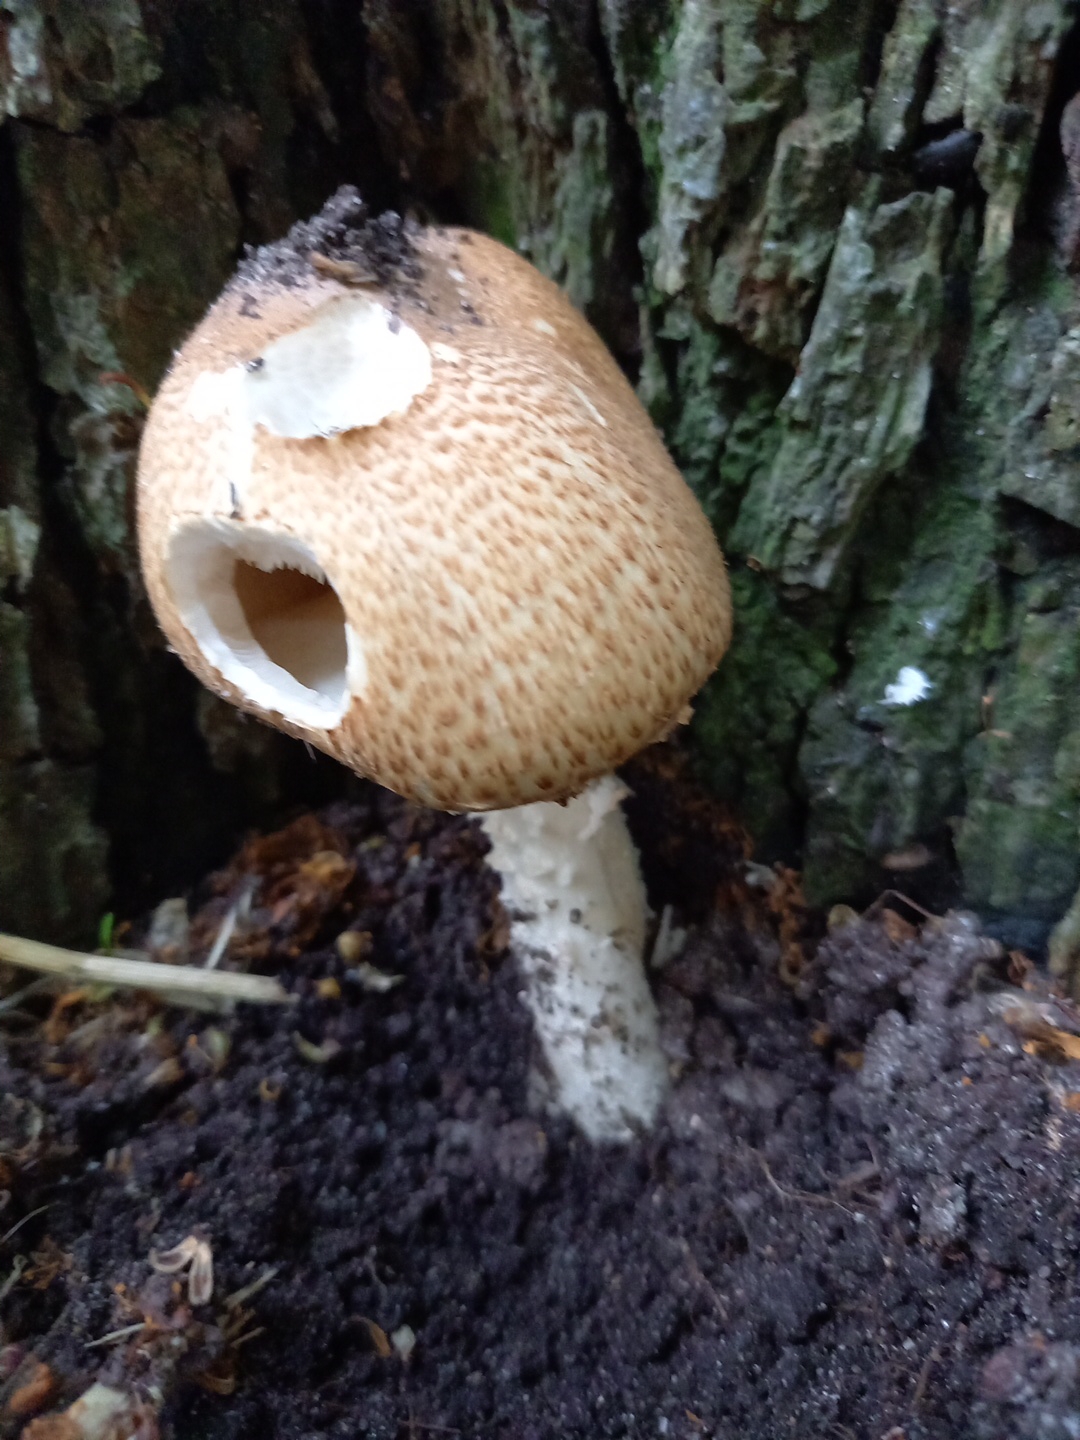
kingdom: Fungi
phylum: Basidiomycota
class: Agaricomycetes
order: Agaricales
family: Agaricaceae
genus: Agaricus
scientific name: Agaricus augustus
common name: prægtig champignon
